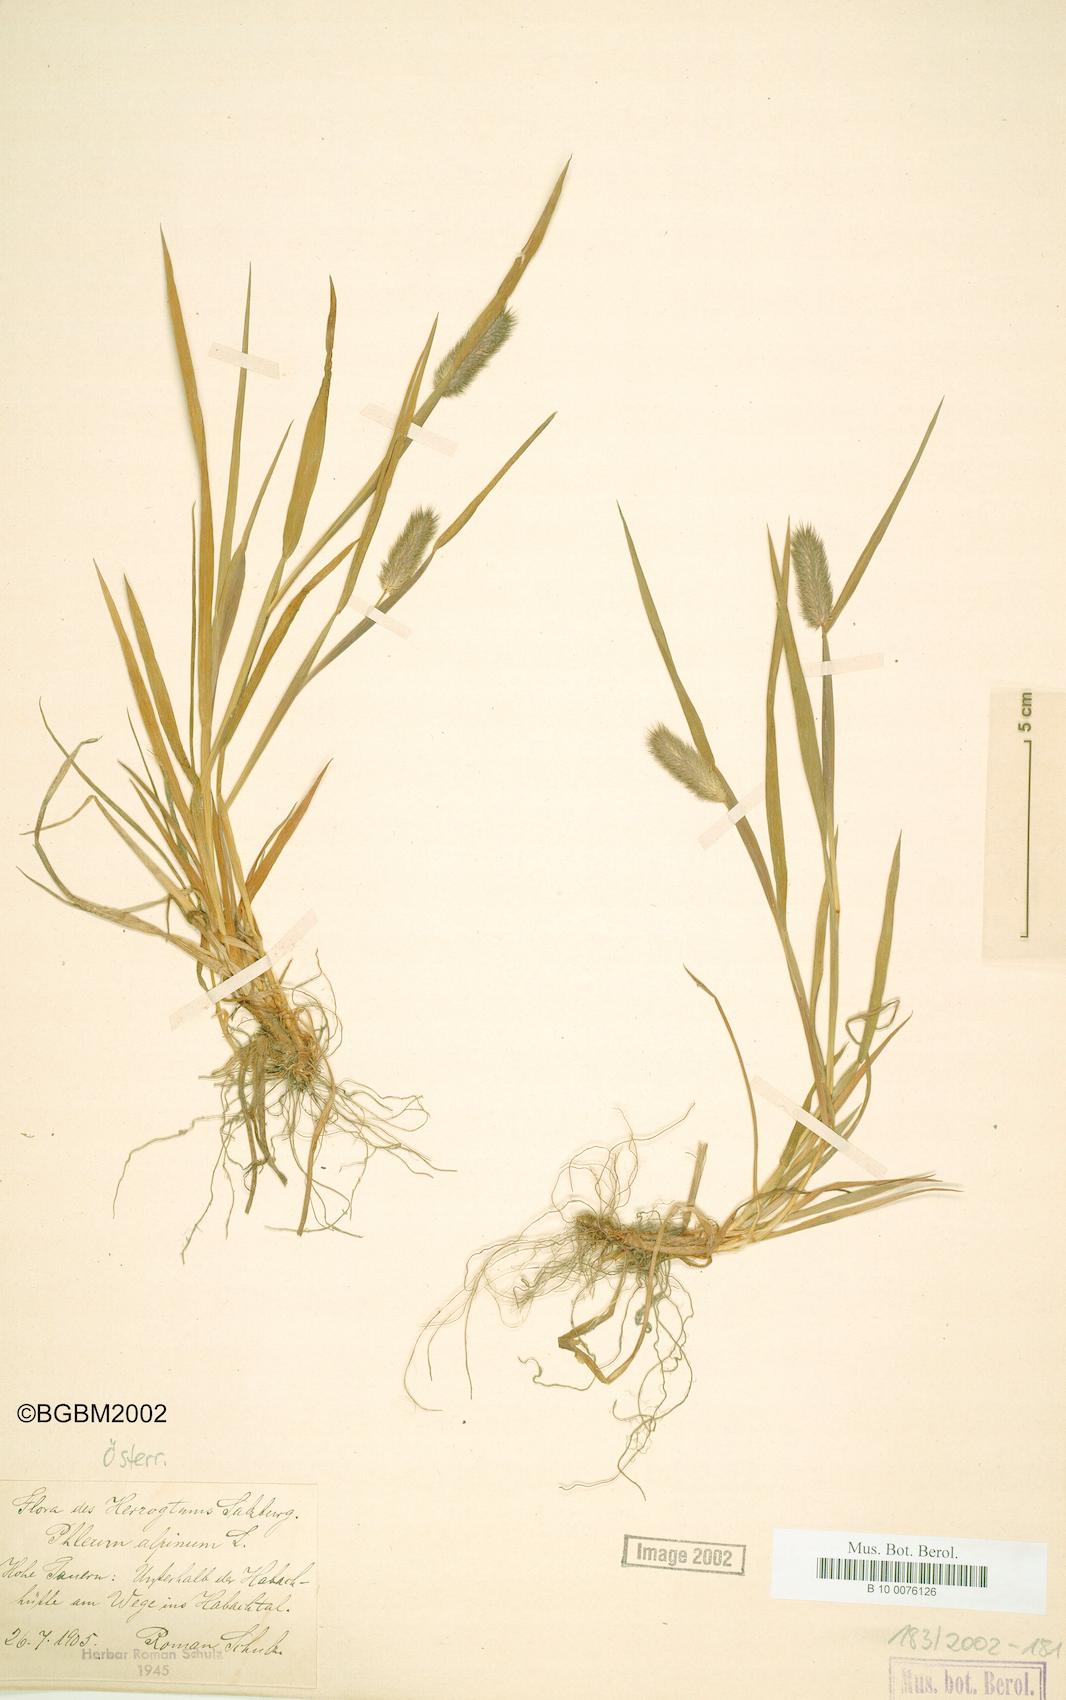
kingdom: Plantae
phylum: Tracheophyta
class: Liliopsida
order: Poales
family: Poaceae
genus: Phleum
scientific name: Phleum alpinum
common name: Alpine cat's-tail
